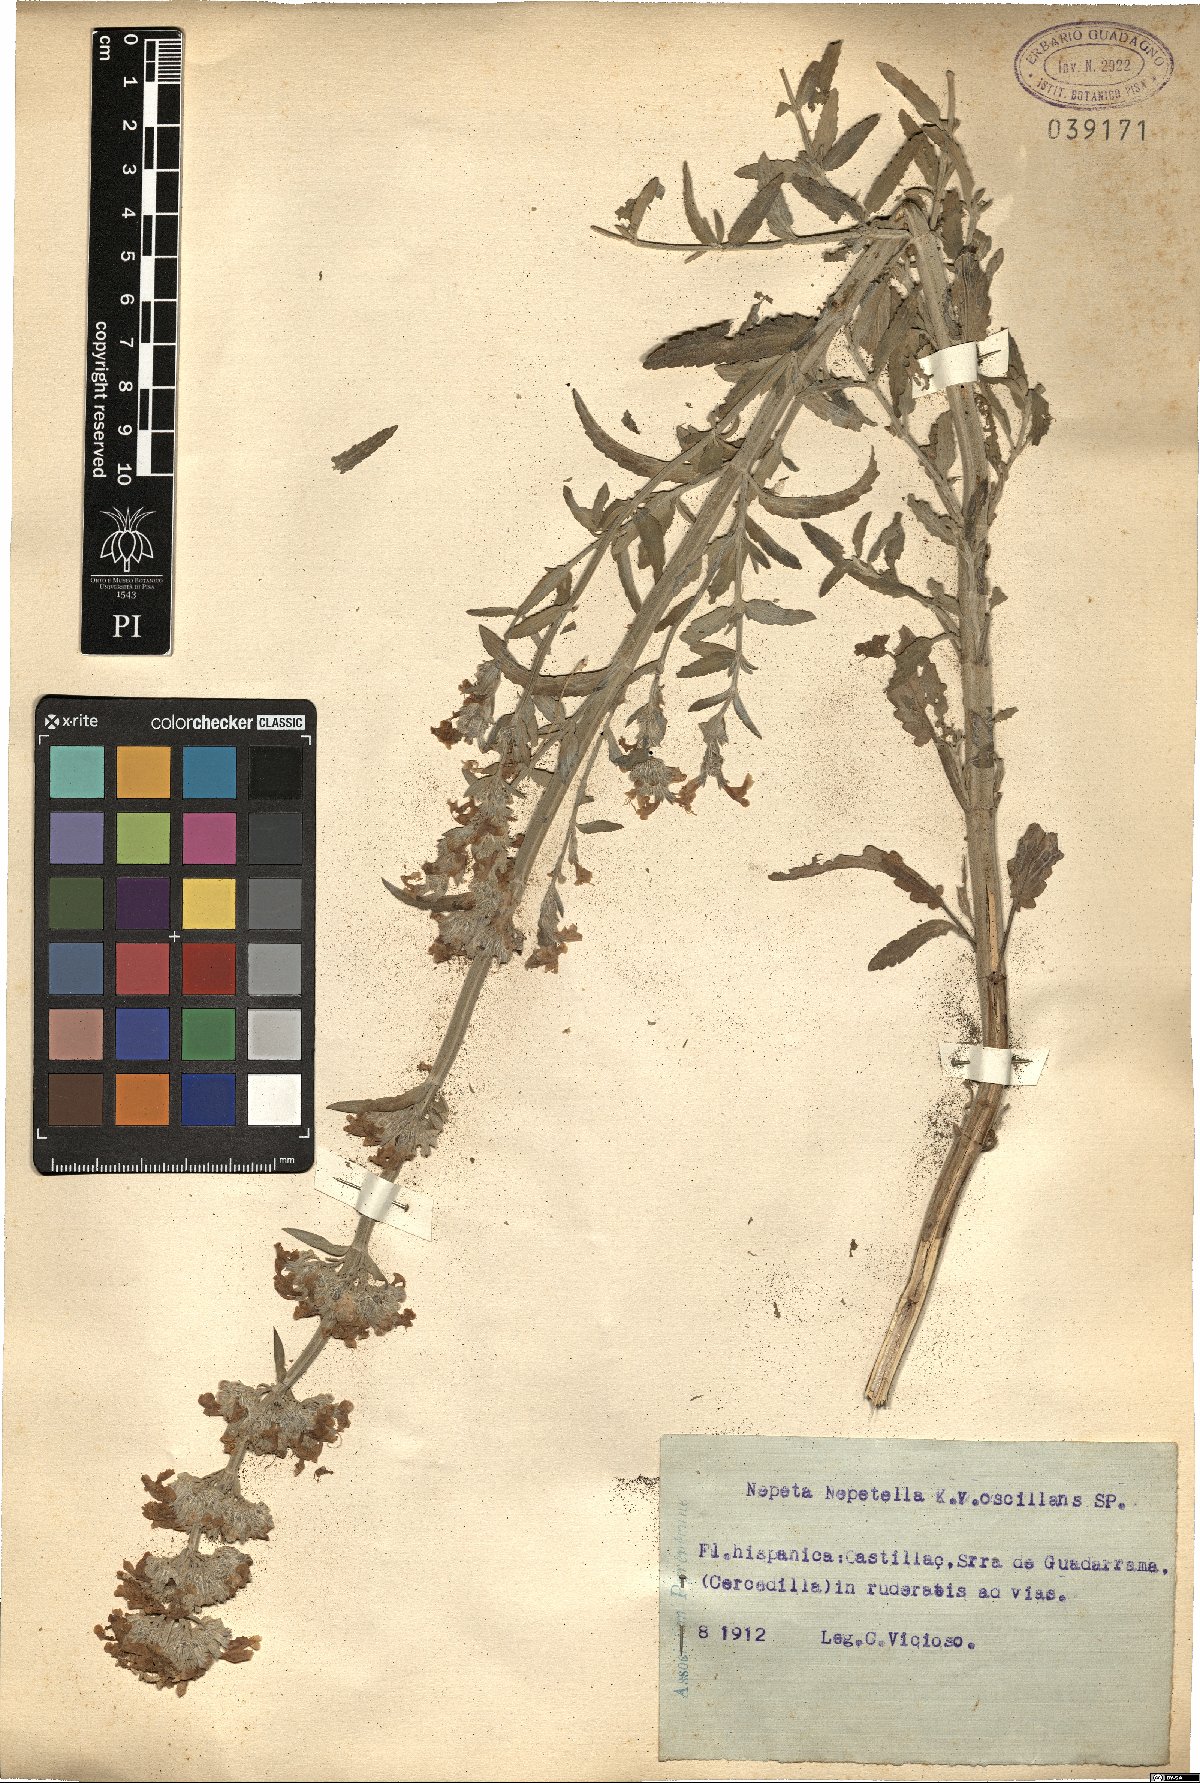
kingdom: Plantae
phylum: Tracheophyta
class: Magnoliopsida
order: Lamiales
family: Lamiaceae
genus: Nepeta
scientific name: Nepeta nepetella
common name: Lesser catmint
